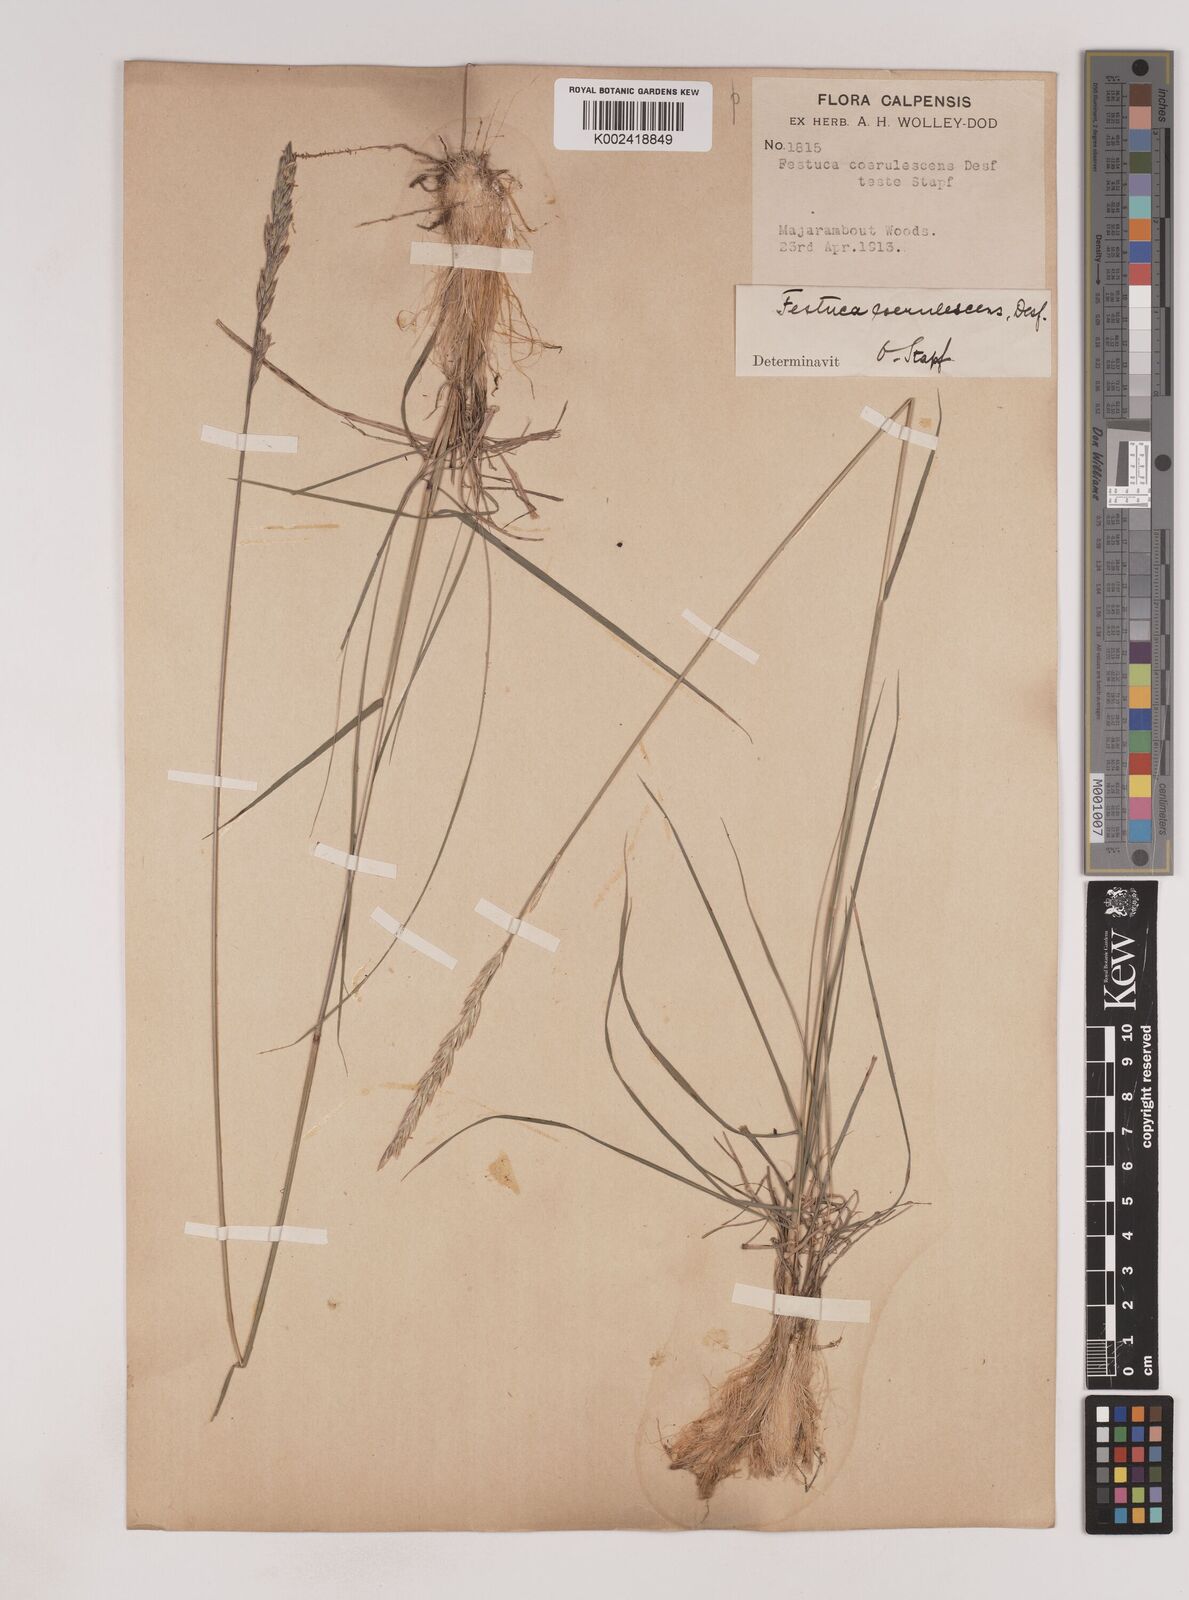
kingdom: Plantae
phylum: Tracheophyta
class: Liliopsida
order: Poales
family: Poaceae
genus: Patzkea
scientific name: Patzkea coerulescens
